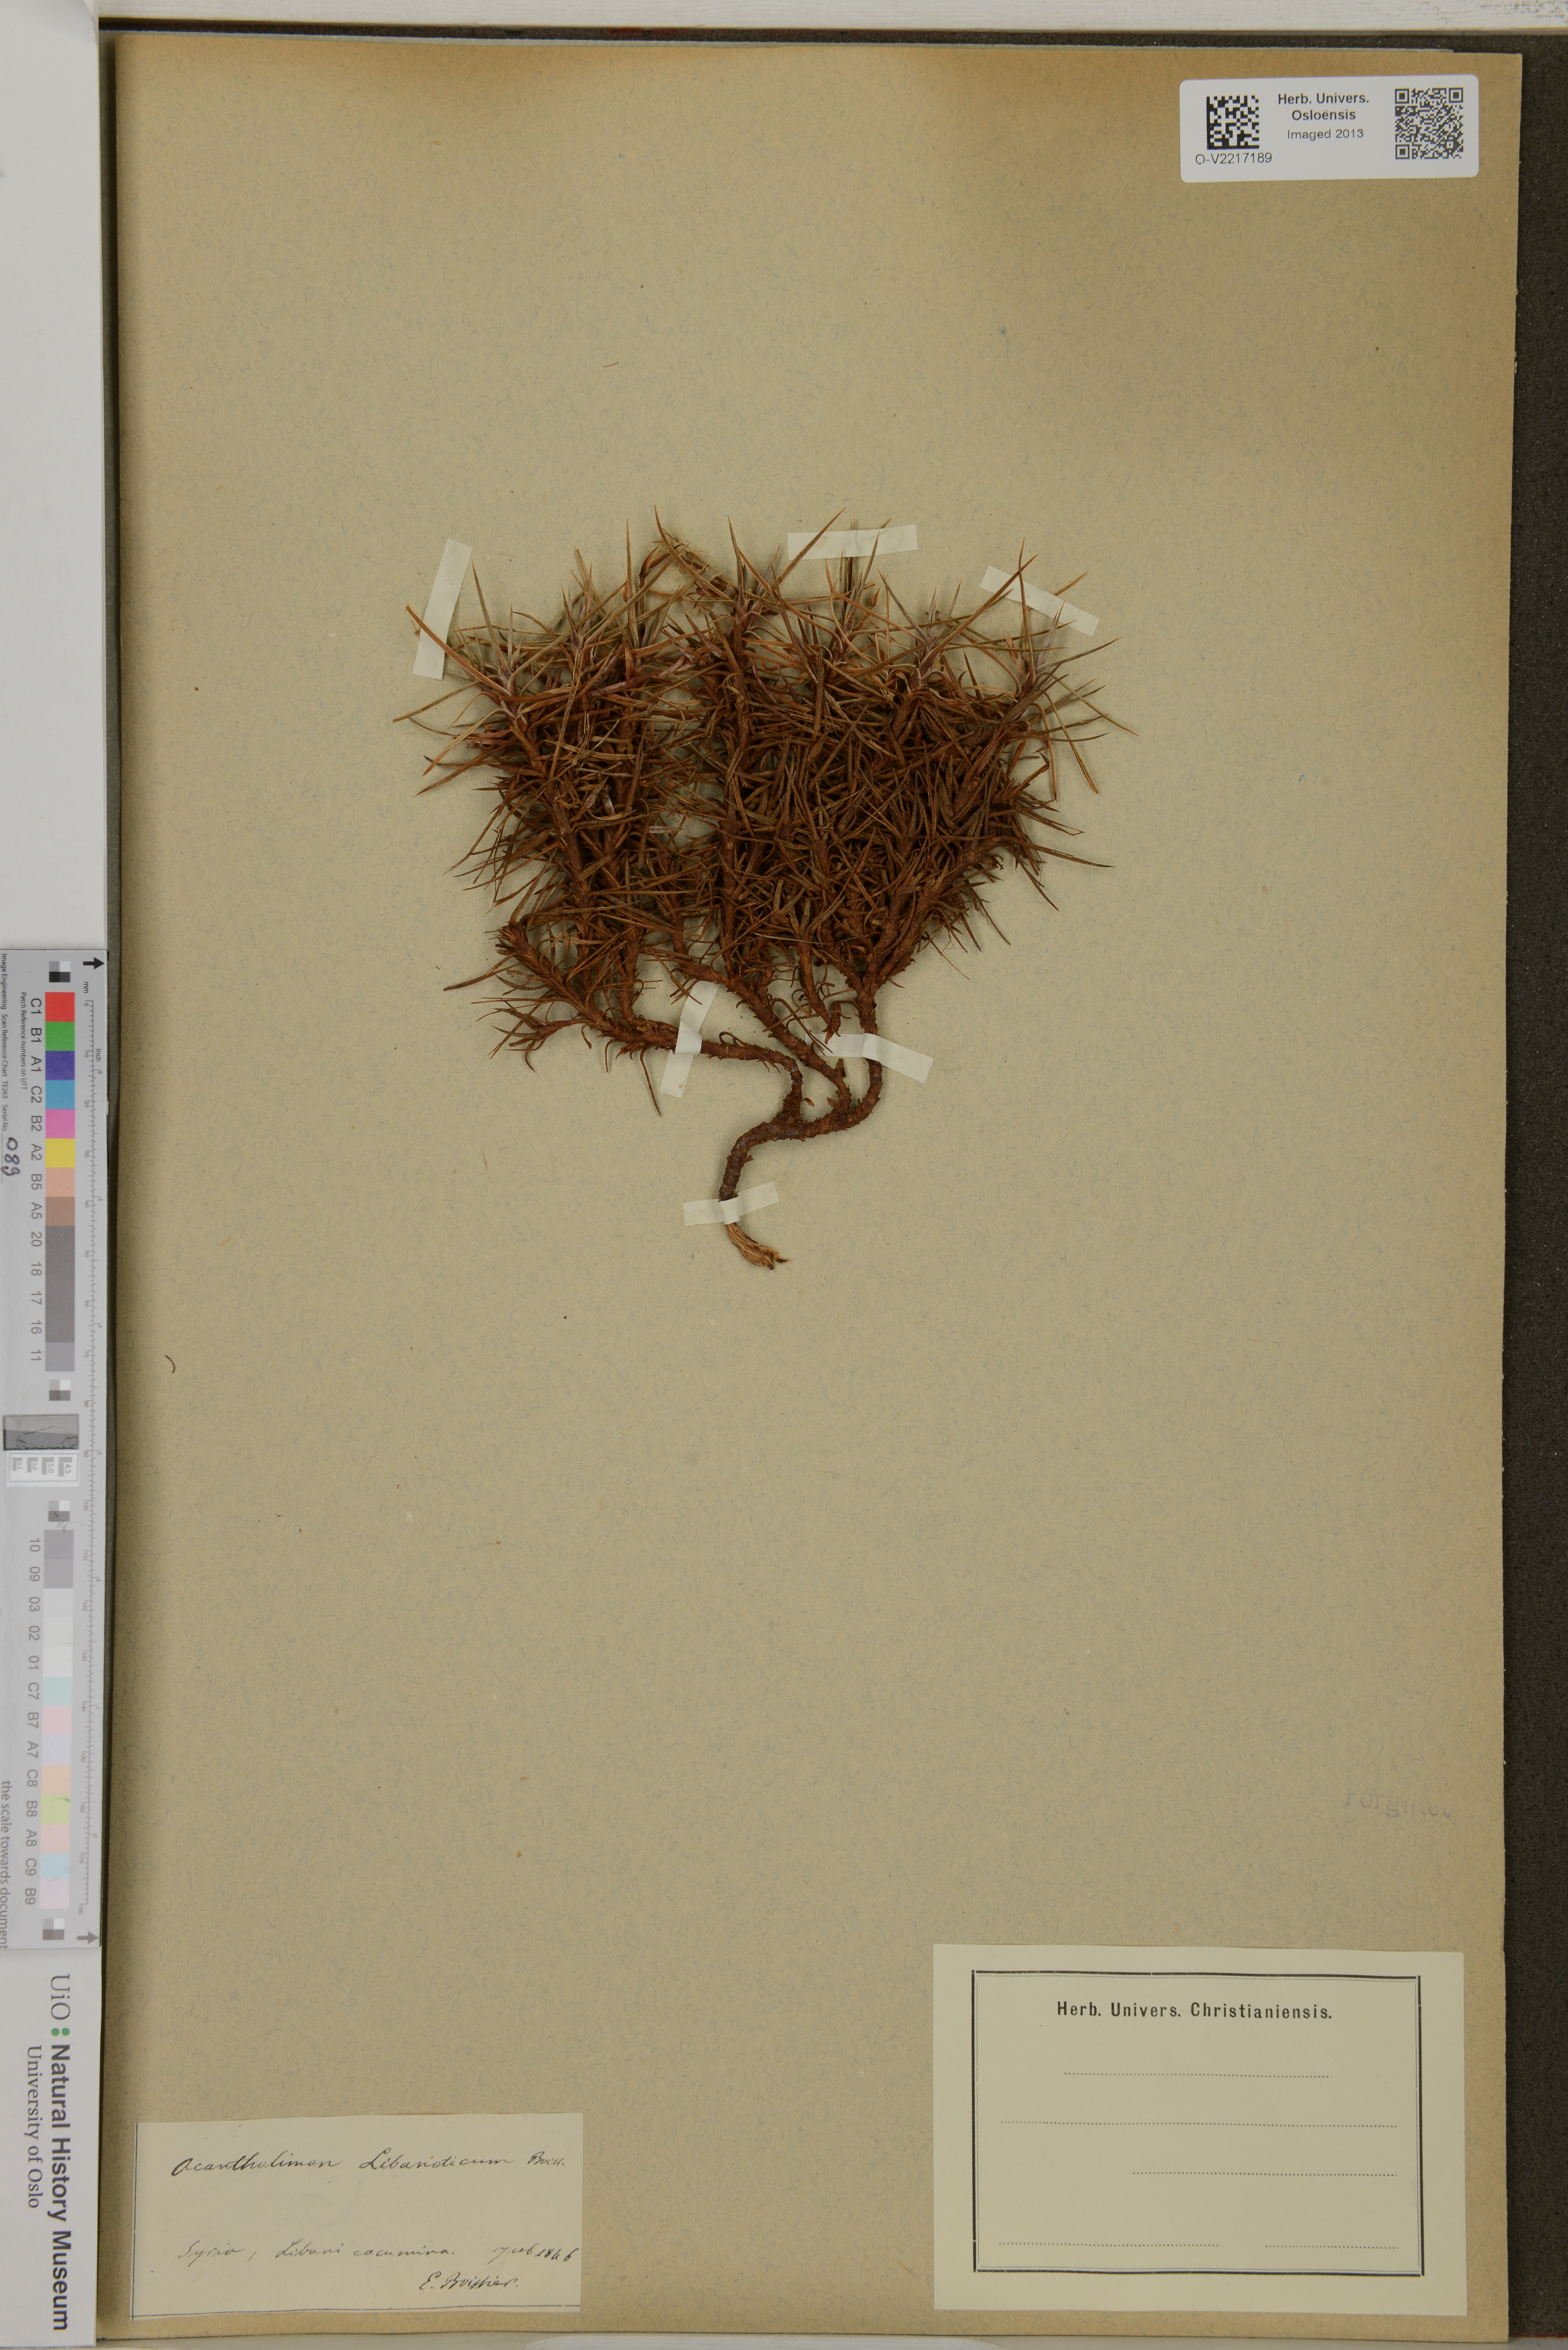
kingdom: Plantae
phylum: Tracheophyta
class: Magnoliopsida
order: Caryophyllales
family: Plumbaginaceae
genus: Acantholimon
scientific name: Acantholimon libanoticum
